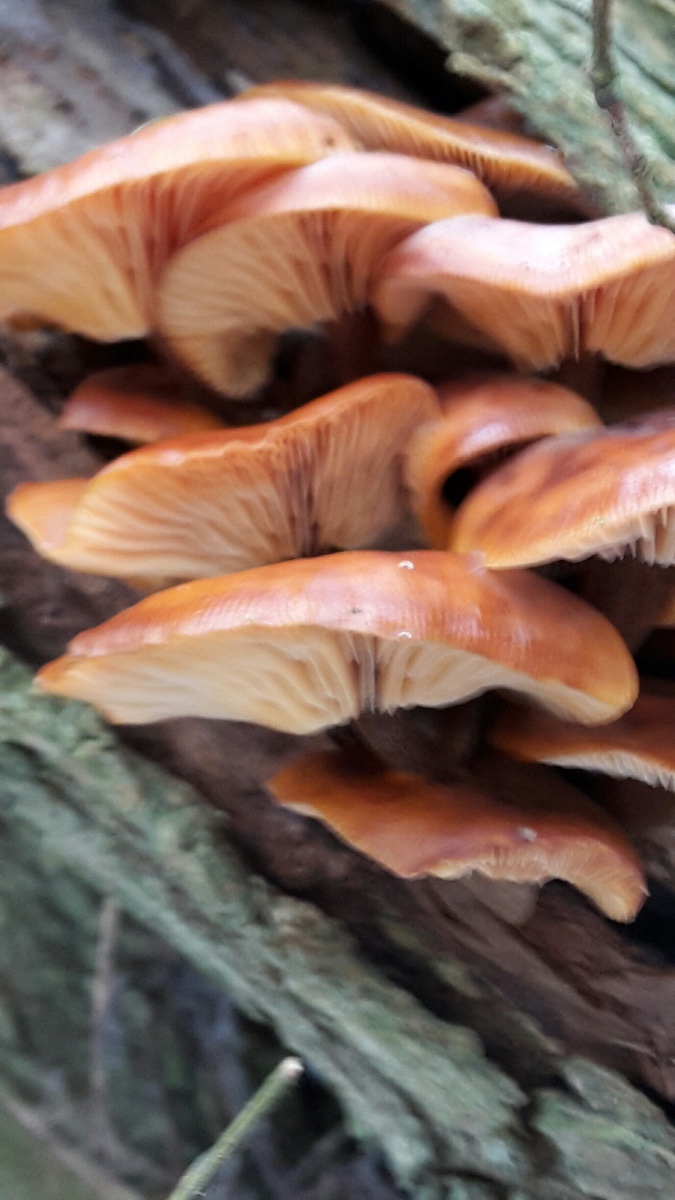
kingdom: Fungi
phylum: Basidiomycota
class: Agaricomycetes
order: Agaricales
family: Physalacriaceae
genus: Flammulina
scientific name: Flammulina
